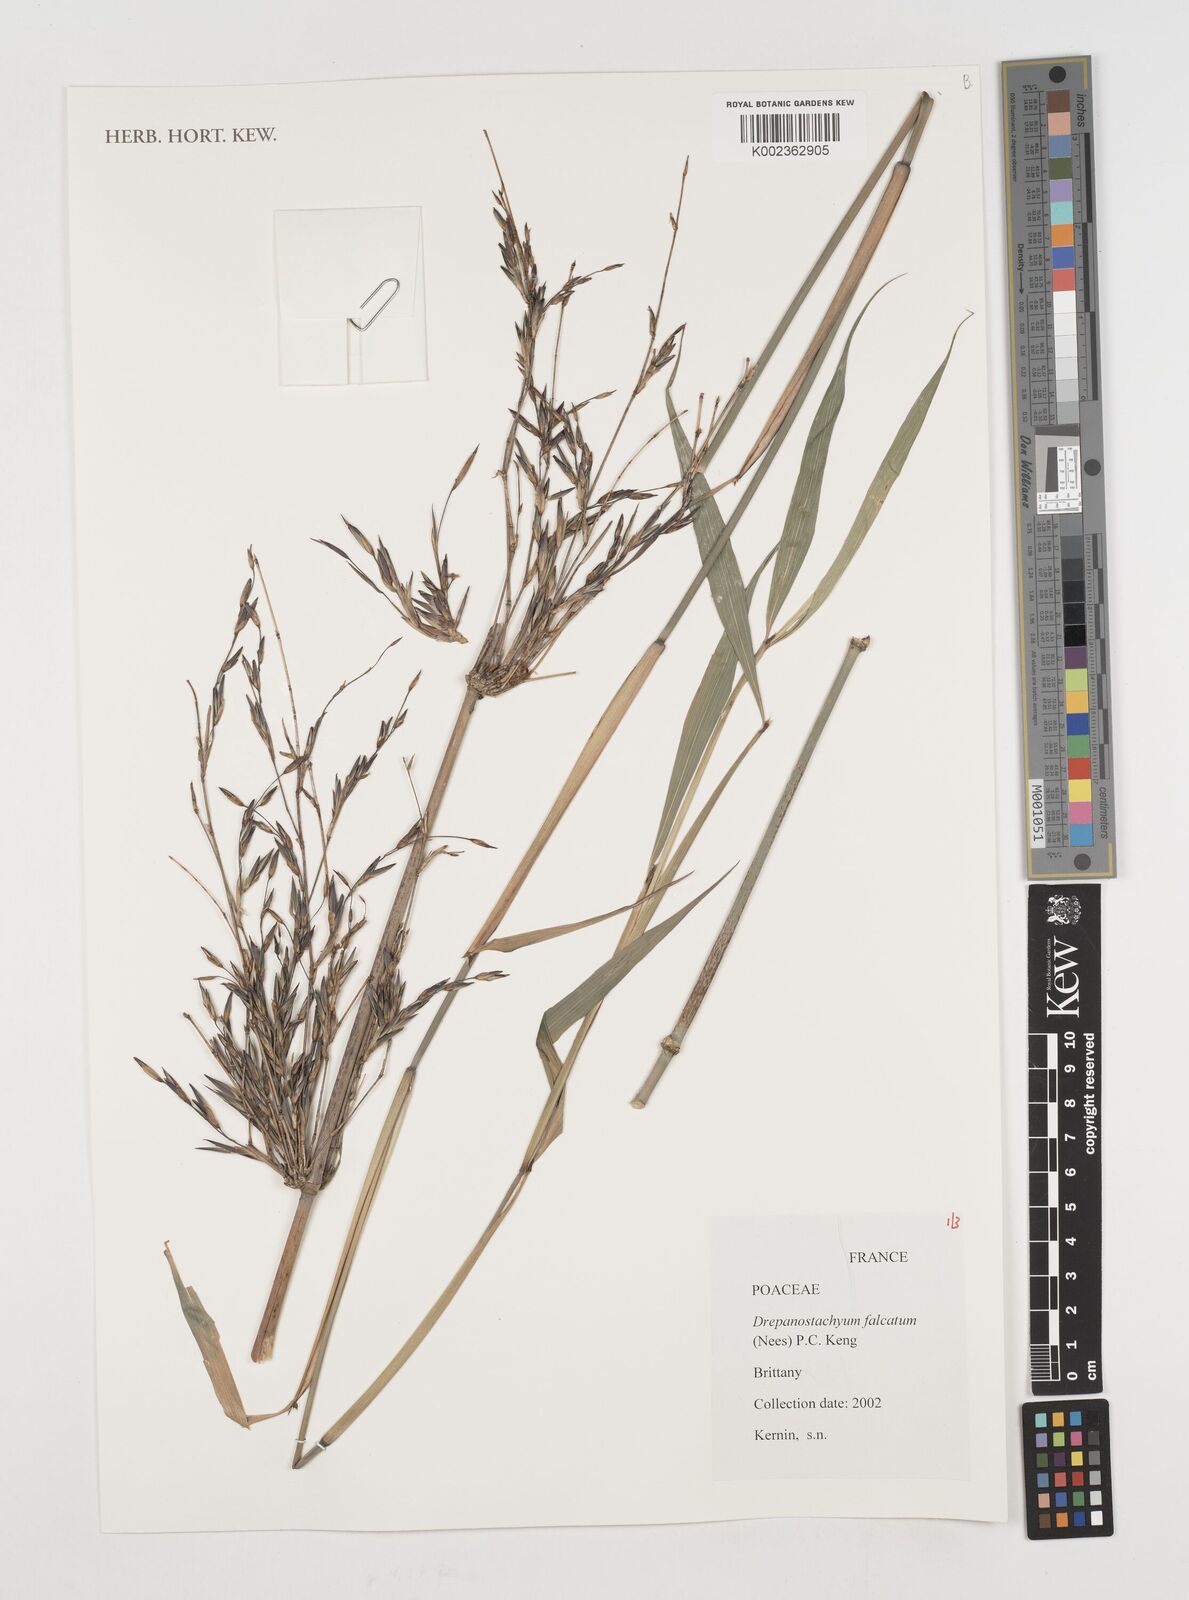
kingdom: Plantae
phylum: Tracheophyta
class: Liliopsida
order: Poales
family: Poaceae
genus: Drepanostachyum
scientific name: Drepanostachyum falcatum
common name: Himalayan bamboo
